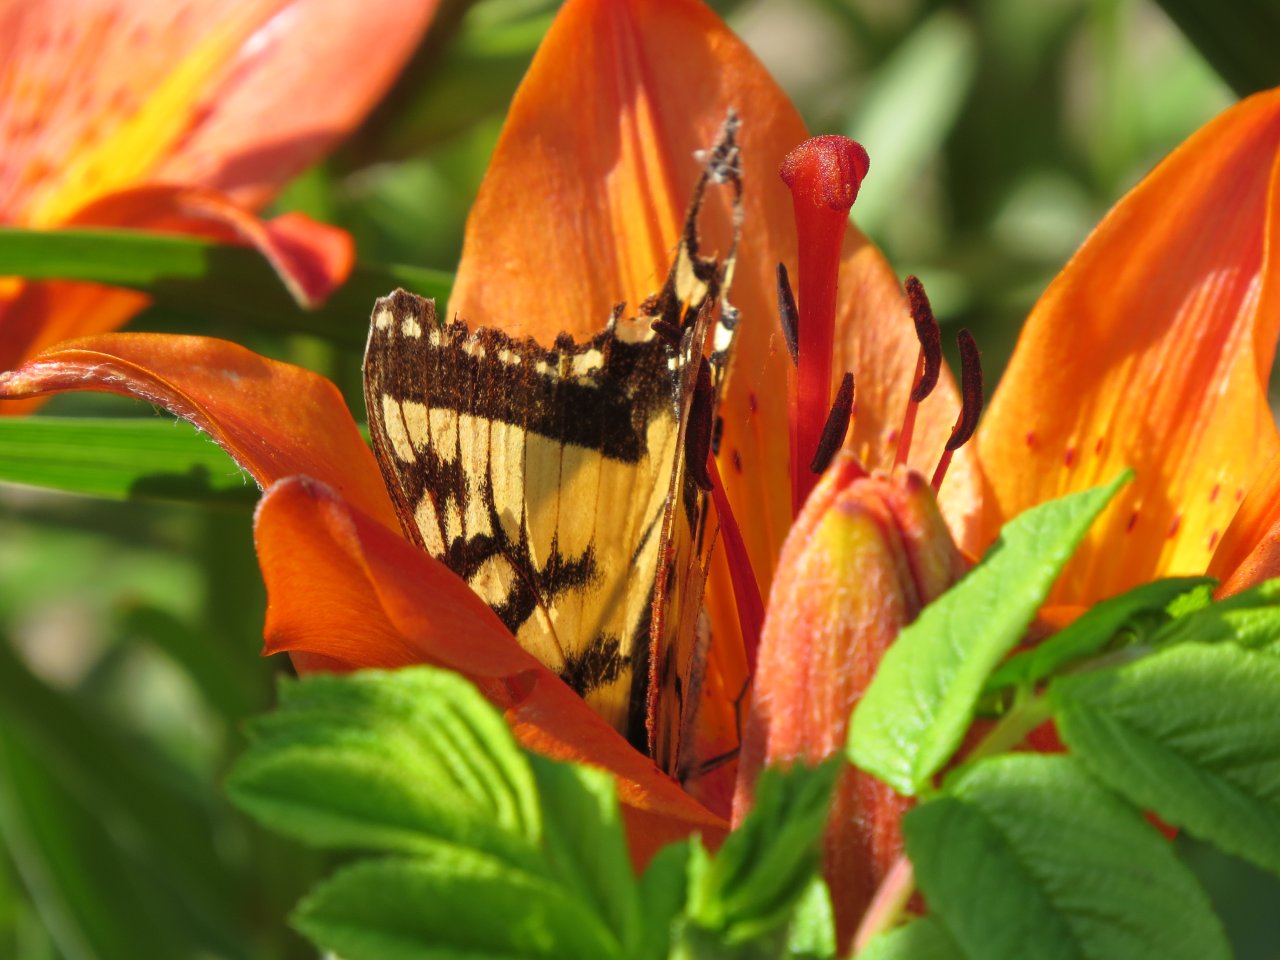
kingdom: Animalia
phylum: Arthropoda
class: Insecta
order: Lepidoptera
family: Papilionidae
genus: Pterourus
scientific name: Pterourus canadensis
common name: Canadian Tiger Swallowtail
